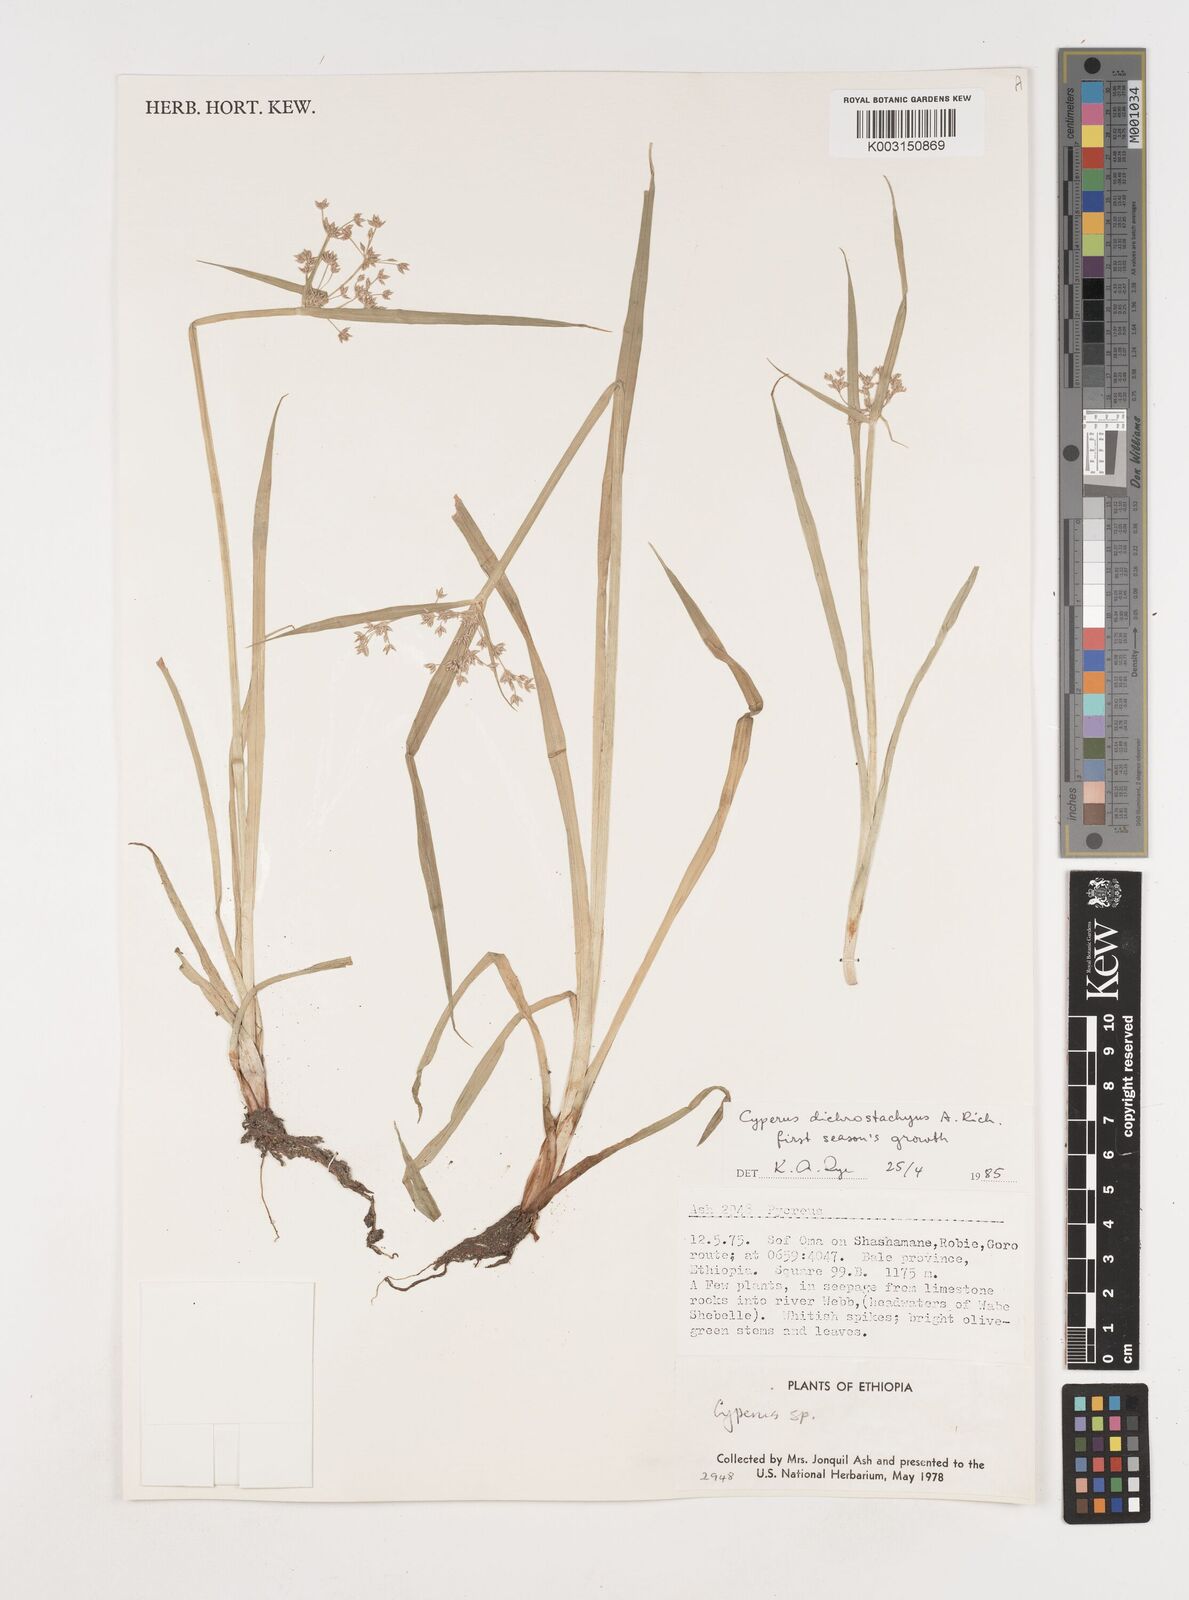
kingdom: Plantae
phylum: Tracheophyta
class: Liliopsida
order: Poales
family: Cyperaceae
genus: Cyperus
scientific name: Cyperus dichrostachyus
